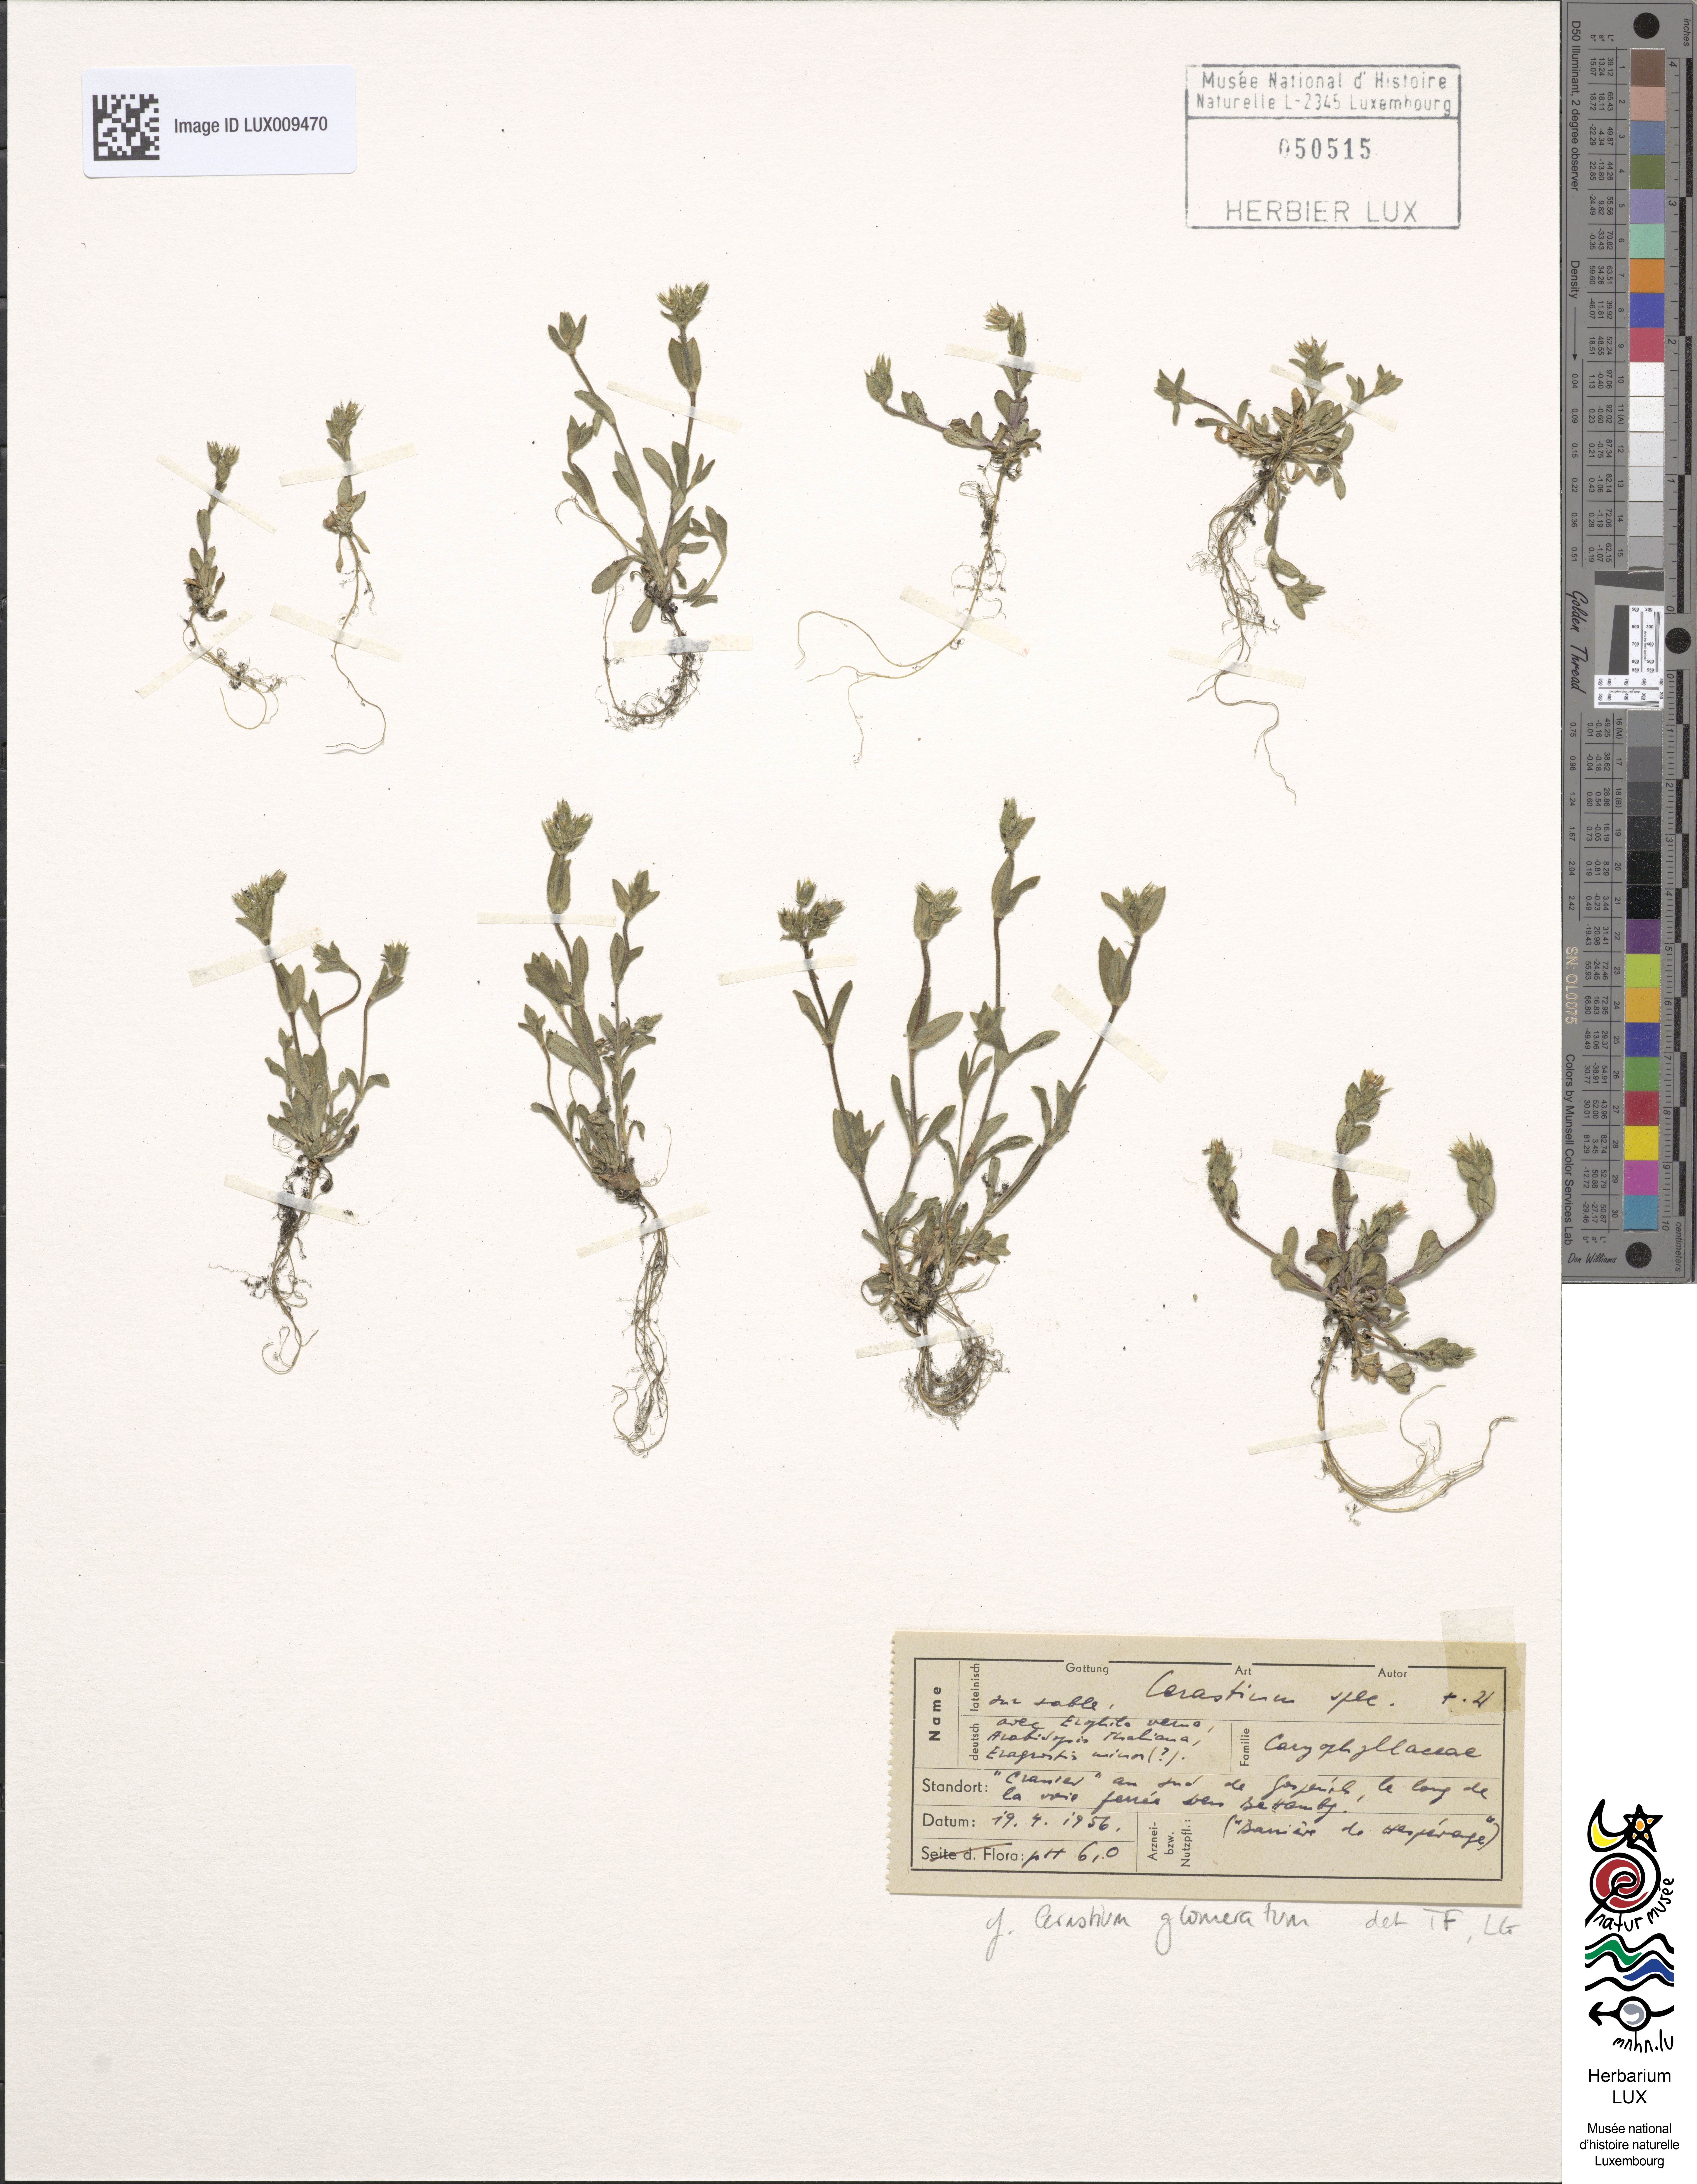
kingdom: Plantae
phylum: Tracheophyta
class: Magnoliopsida
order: Caryophyllales
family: Caryophyllaceae
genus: Cerastium
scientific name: Cerastium glomeratum
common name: Sticky chickweed
